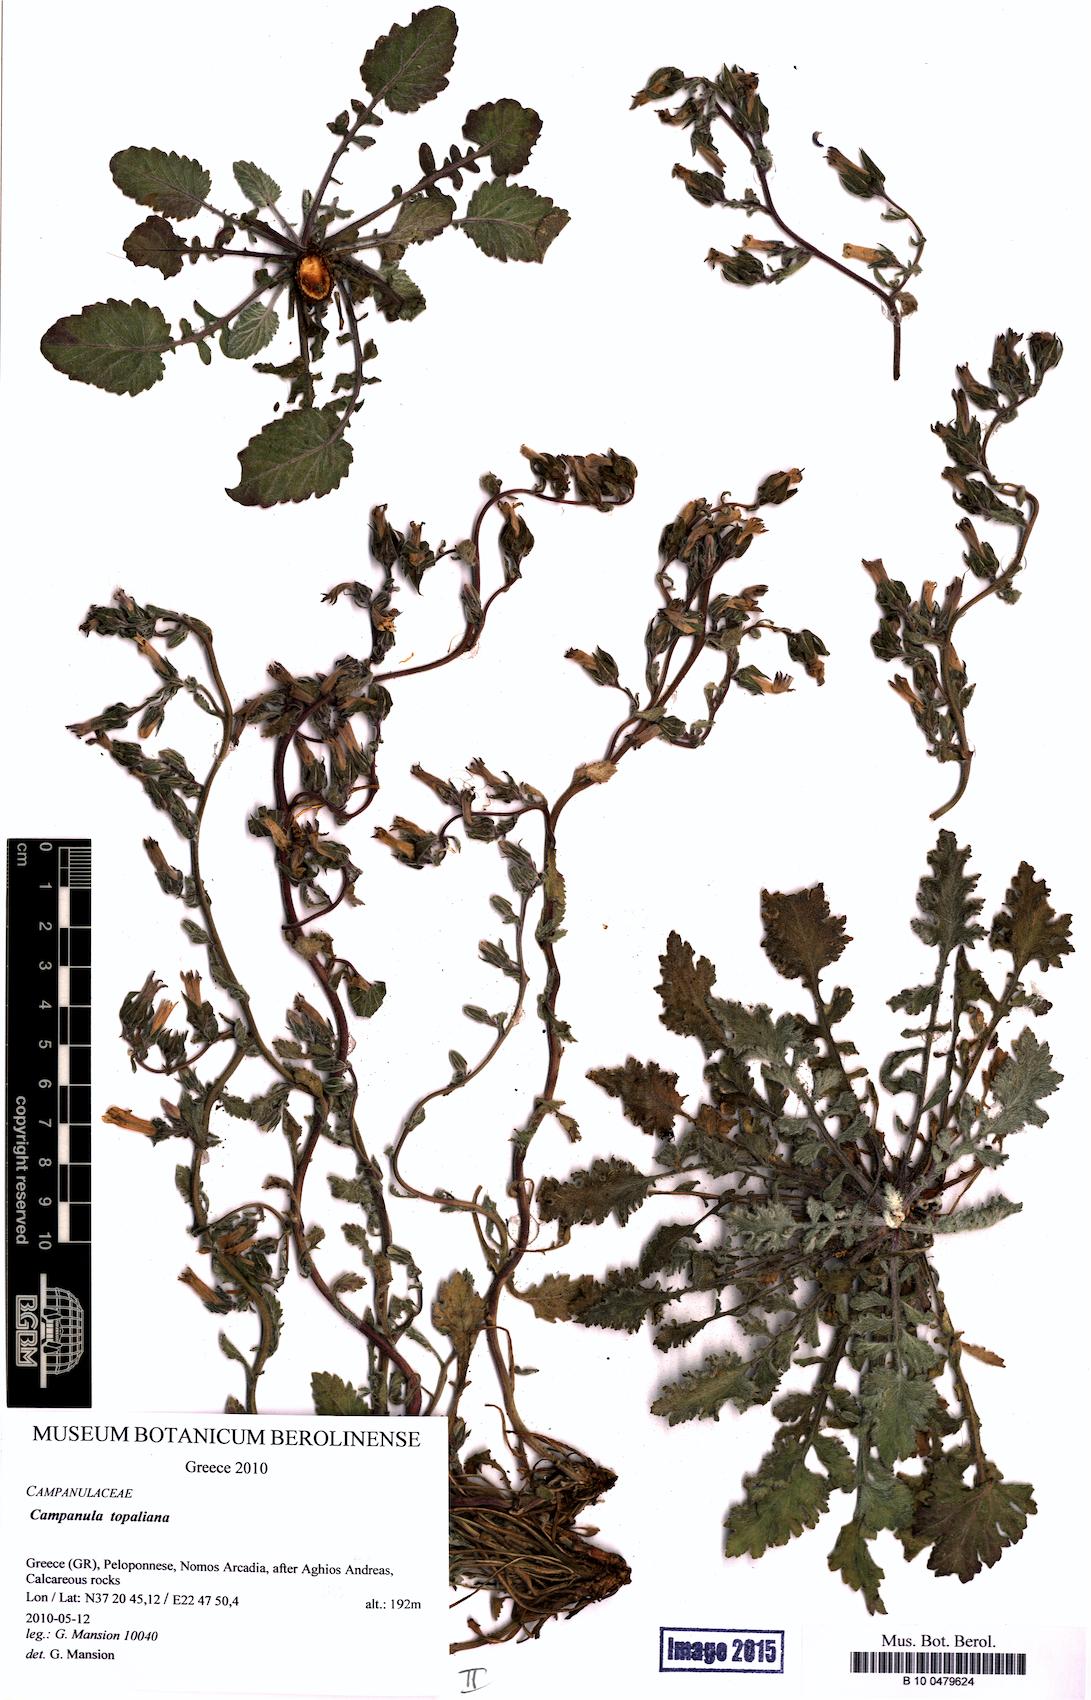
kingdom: Plantae
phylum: Tracheophyta
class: Magnoliopsida
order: Asterales
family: Campanulaceae
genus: Campanula
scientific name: Campanula topaliana
